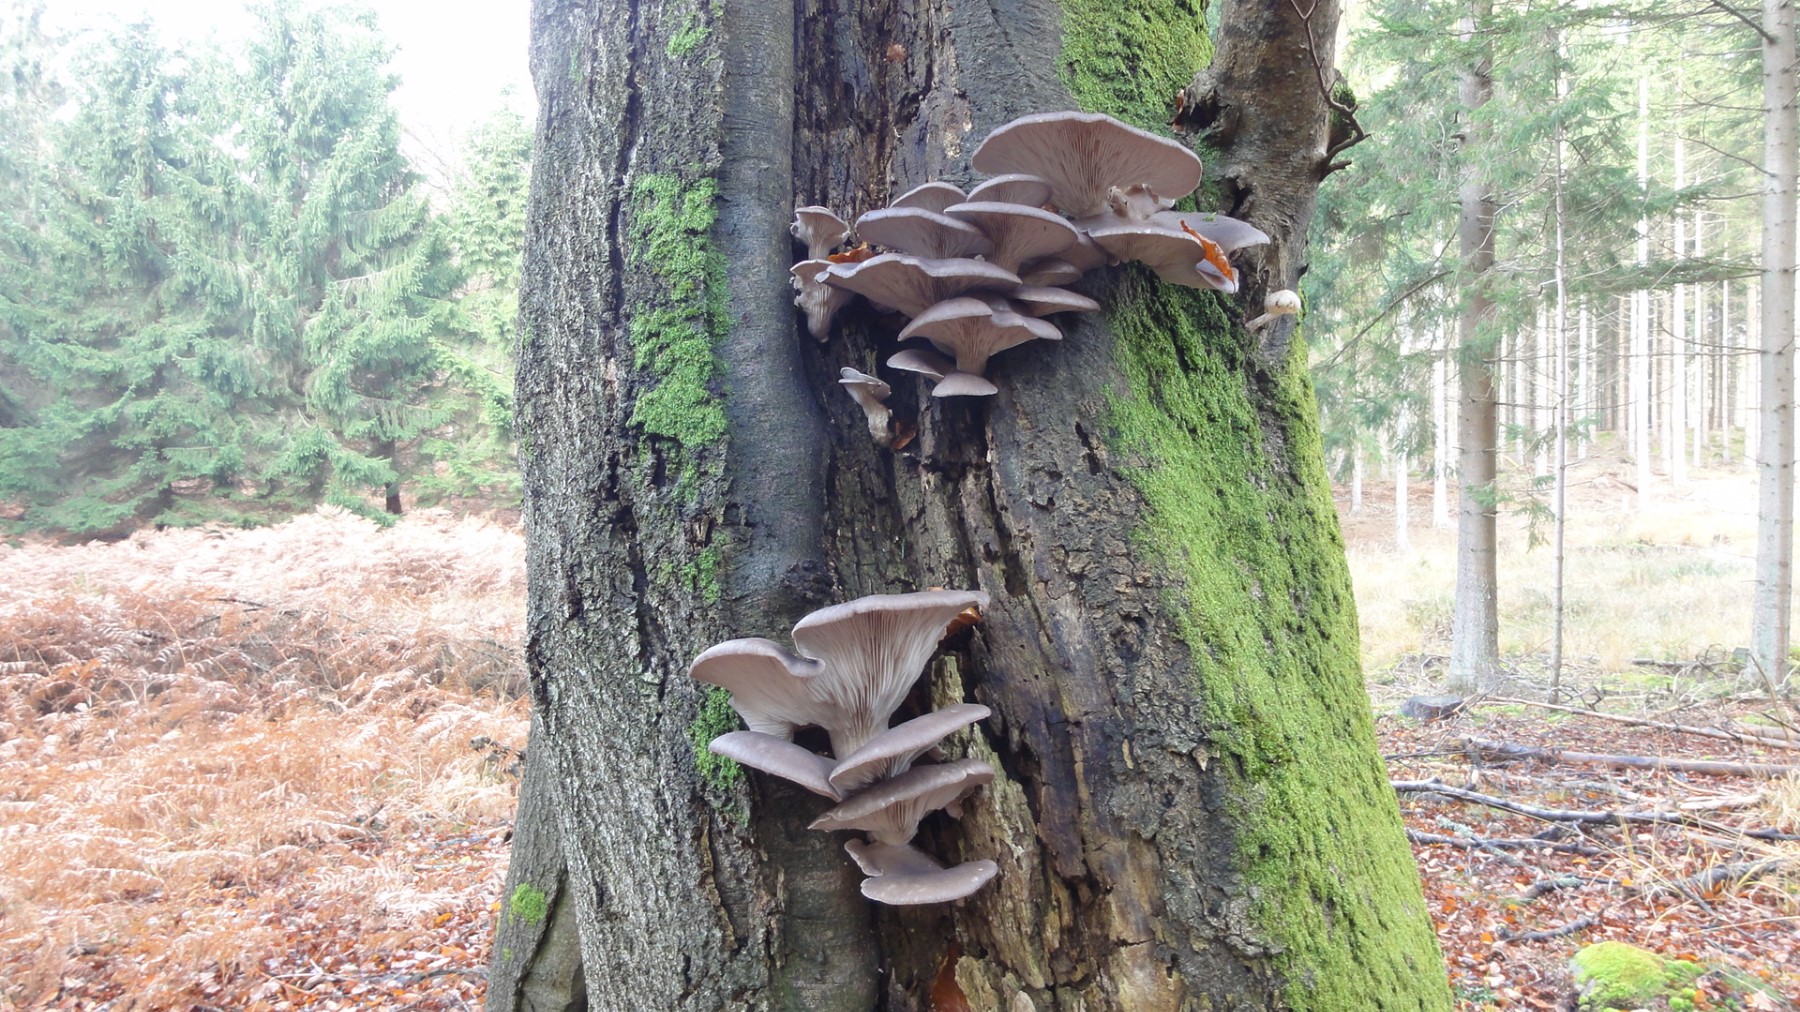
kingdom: Fungi
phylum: Basidiomycota
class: Agaricomycetes
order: Agaricales
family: Pleurotaceae
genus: Pleurotus
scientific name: Pleurotus ostreatus
